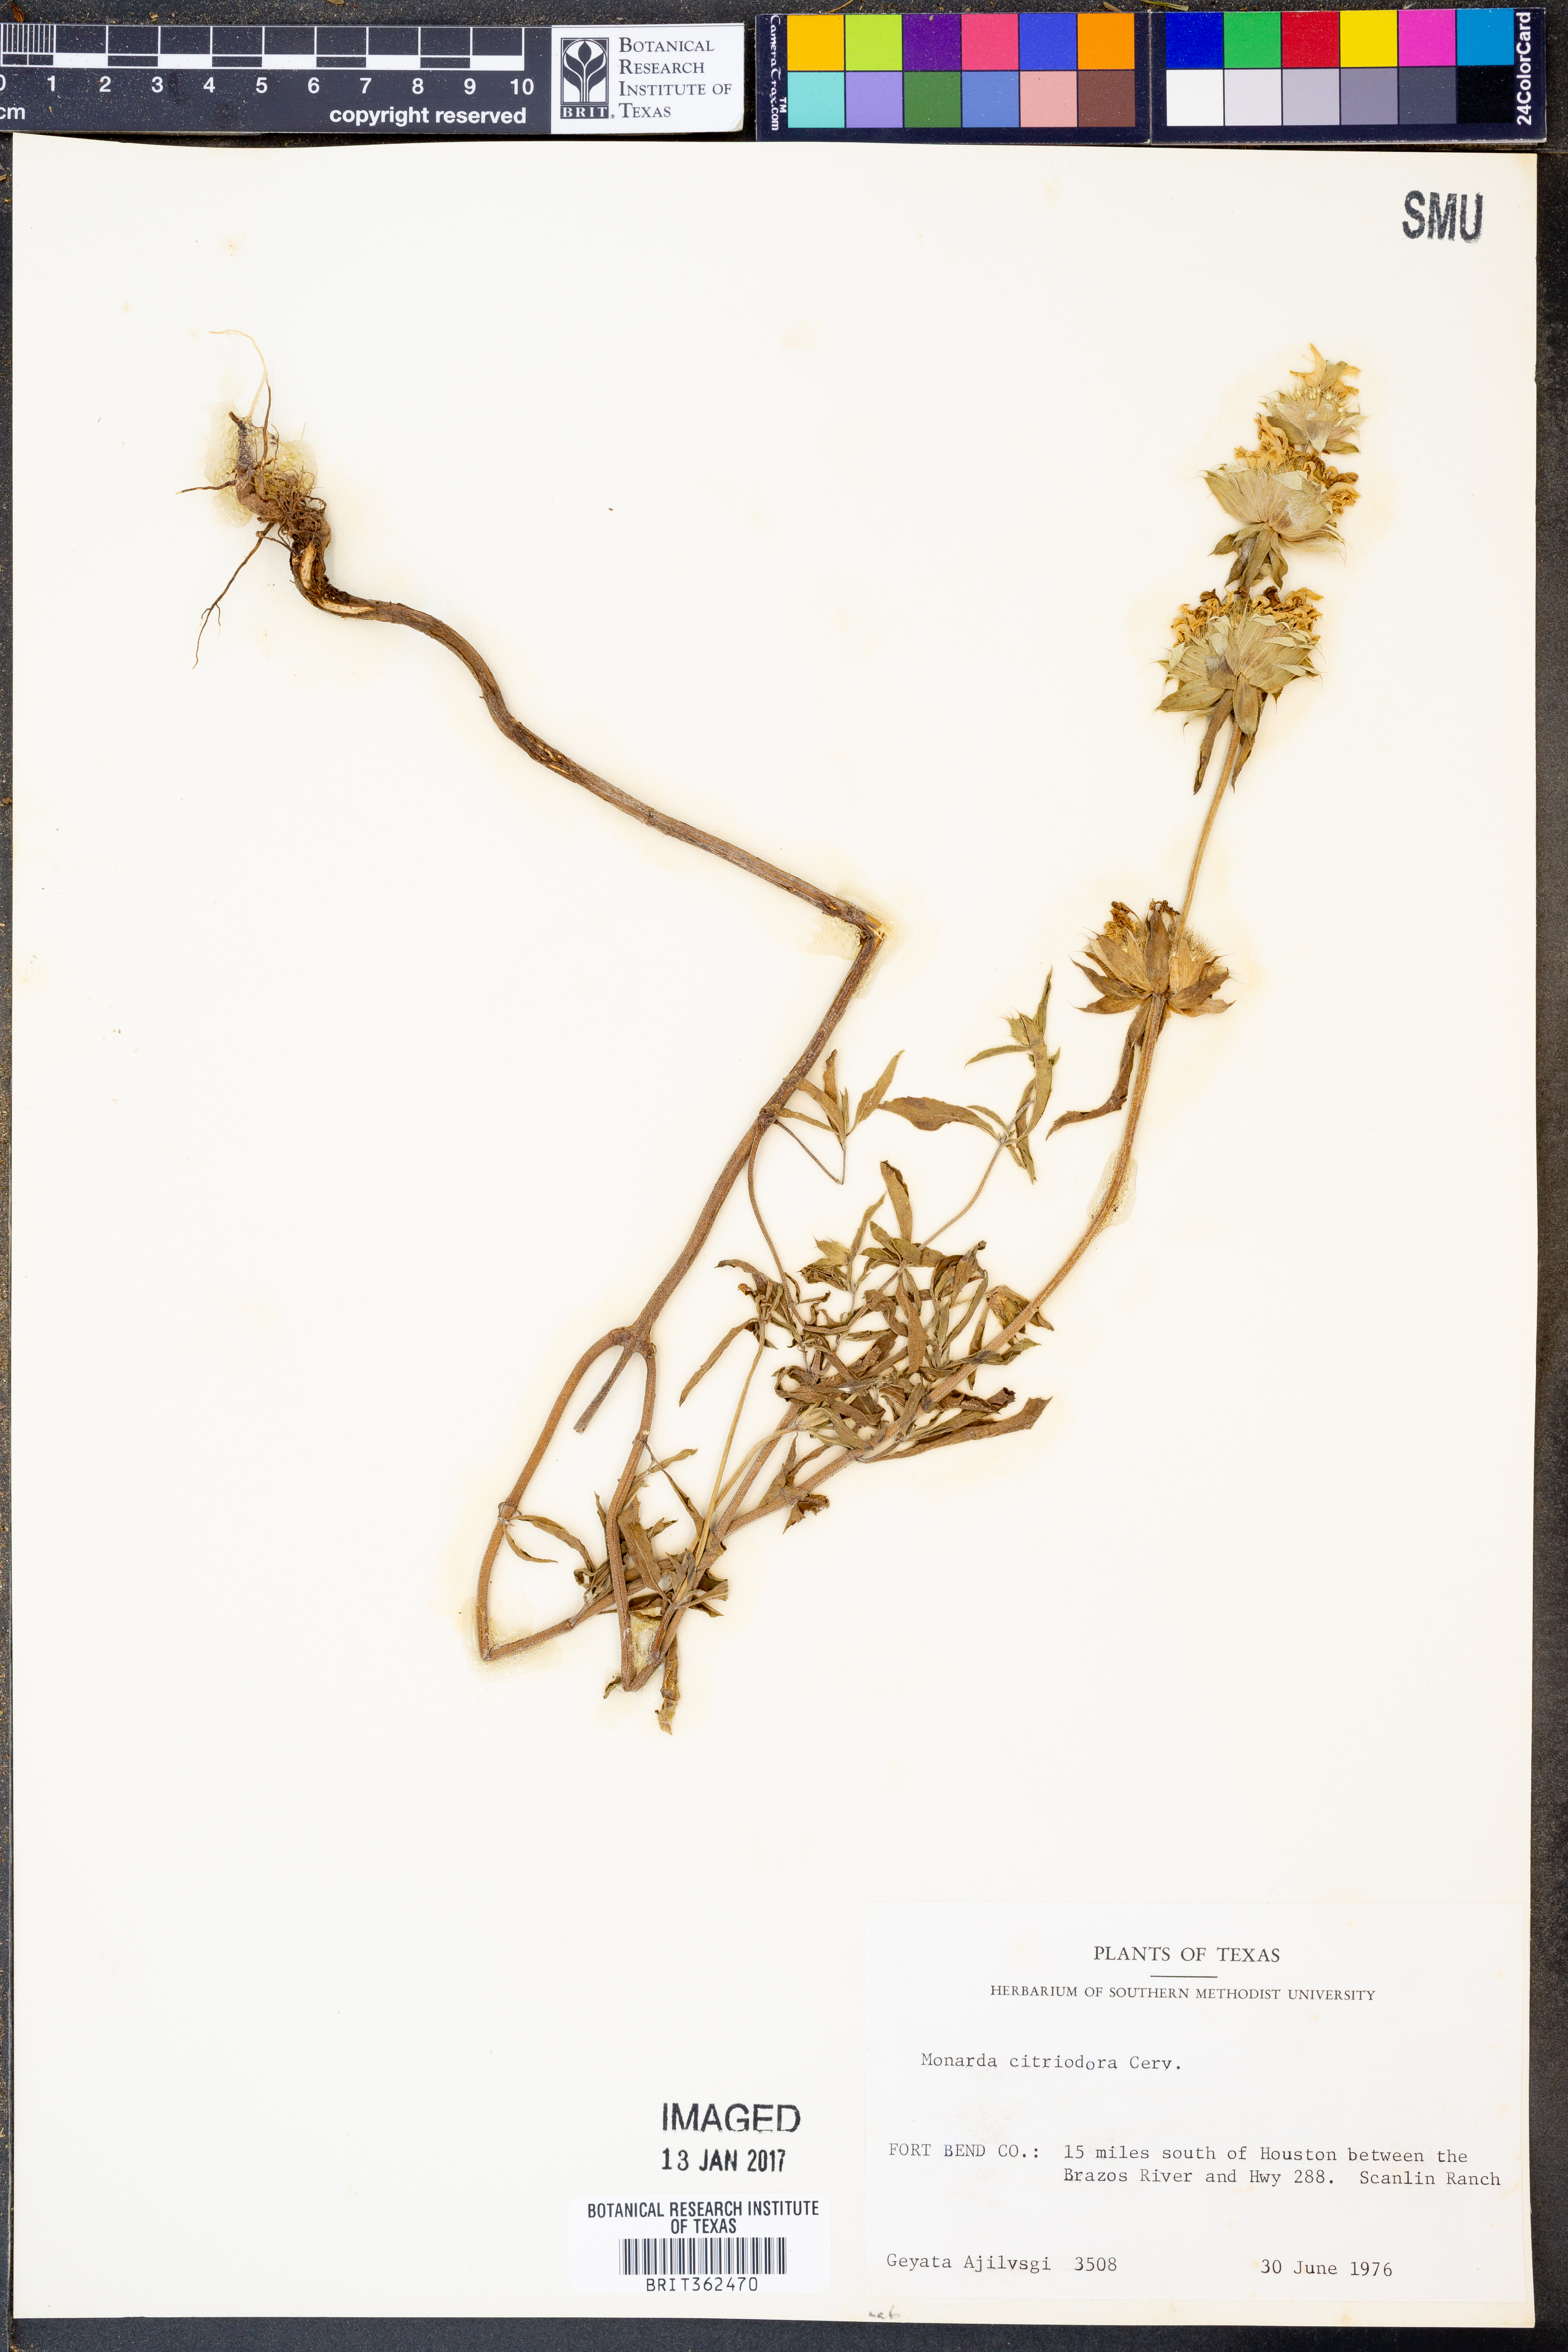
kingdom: Plantae
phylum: Tracheophyta
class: Magnoliopsida
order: Lamiales
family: Lamiaceae
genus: Monarda
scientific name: Monarda citriodora
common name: Lemon beebalm
